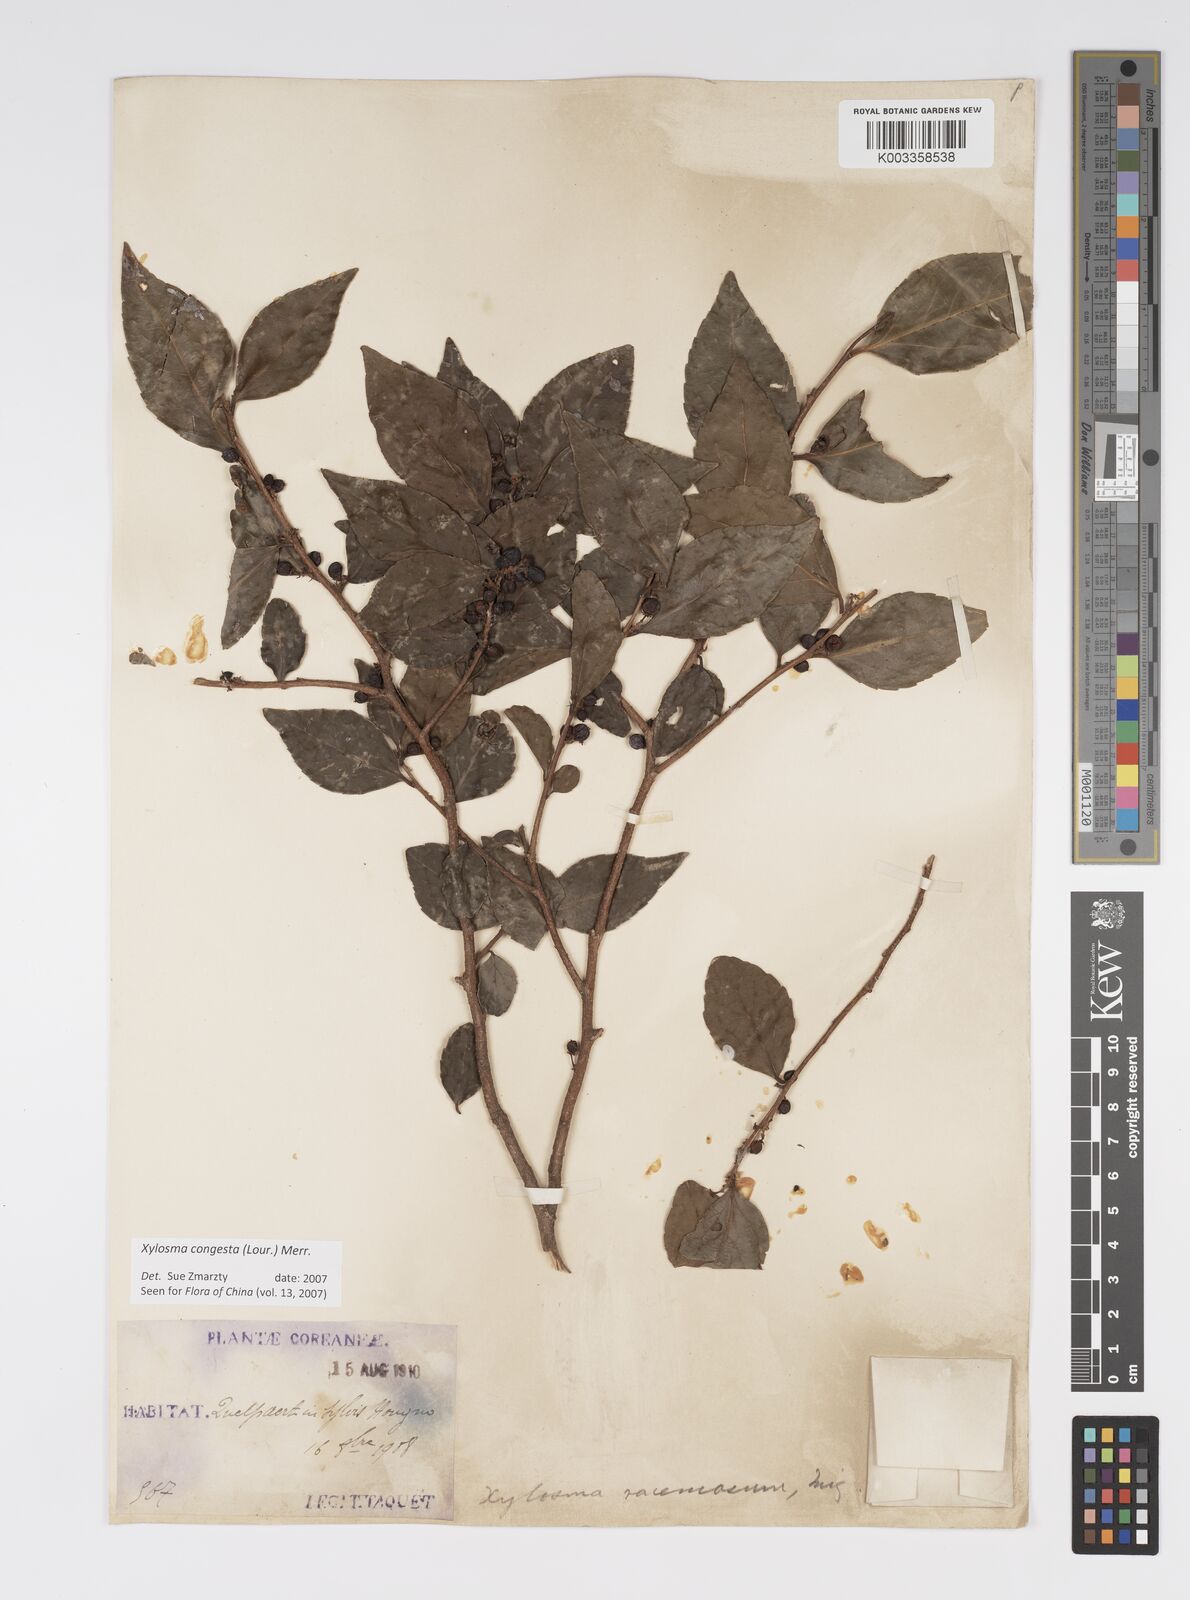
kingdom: Plantae
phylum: Tracheophyta
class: Magnoliopsida
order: Malpighiales
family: Salicaceae
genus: Xylosma
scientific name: Xylosma racemosum
